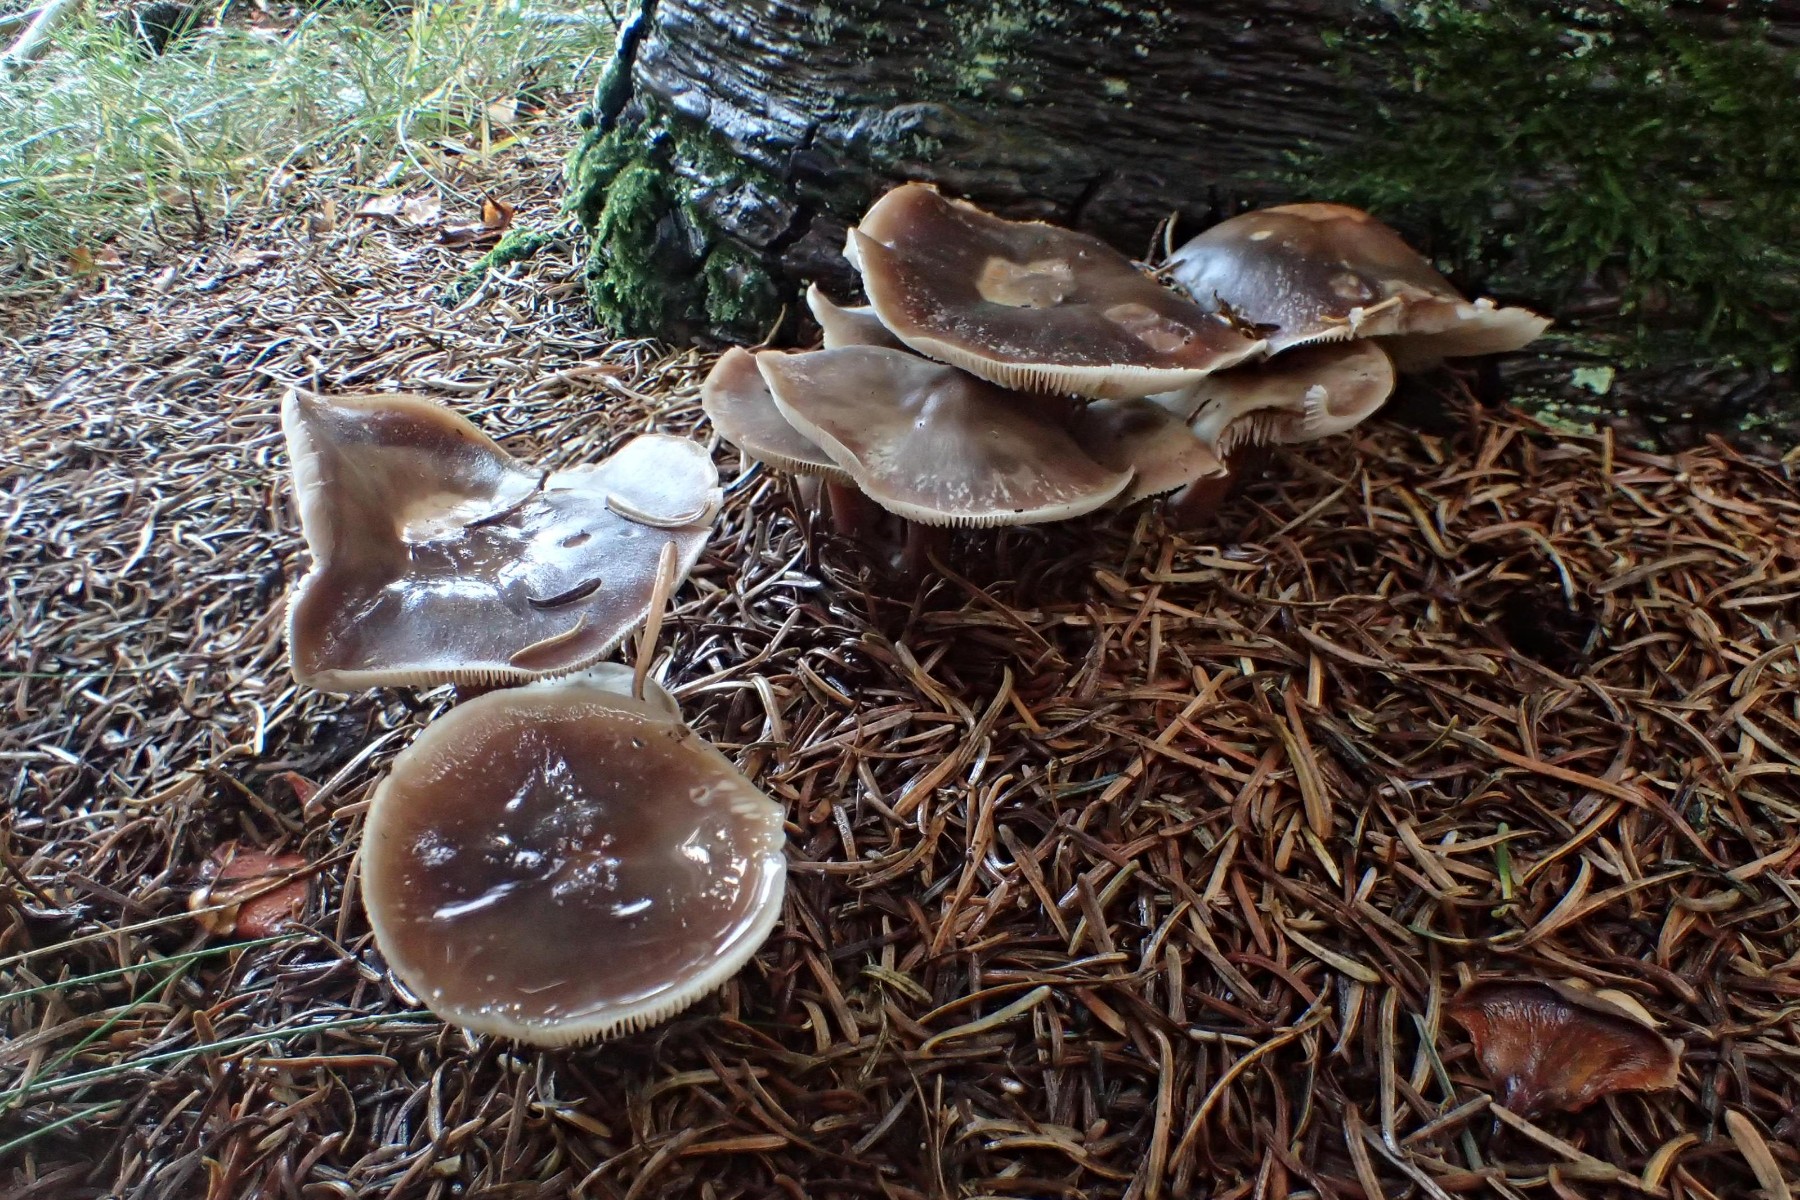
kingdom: Fungi
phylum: Basidiomycota
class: Agaricomycetes
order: Agaricales
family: Omphalotaceae
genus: Rhodocollybia
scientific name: Rhodocollybia asema
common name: horngrå fladhat
